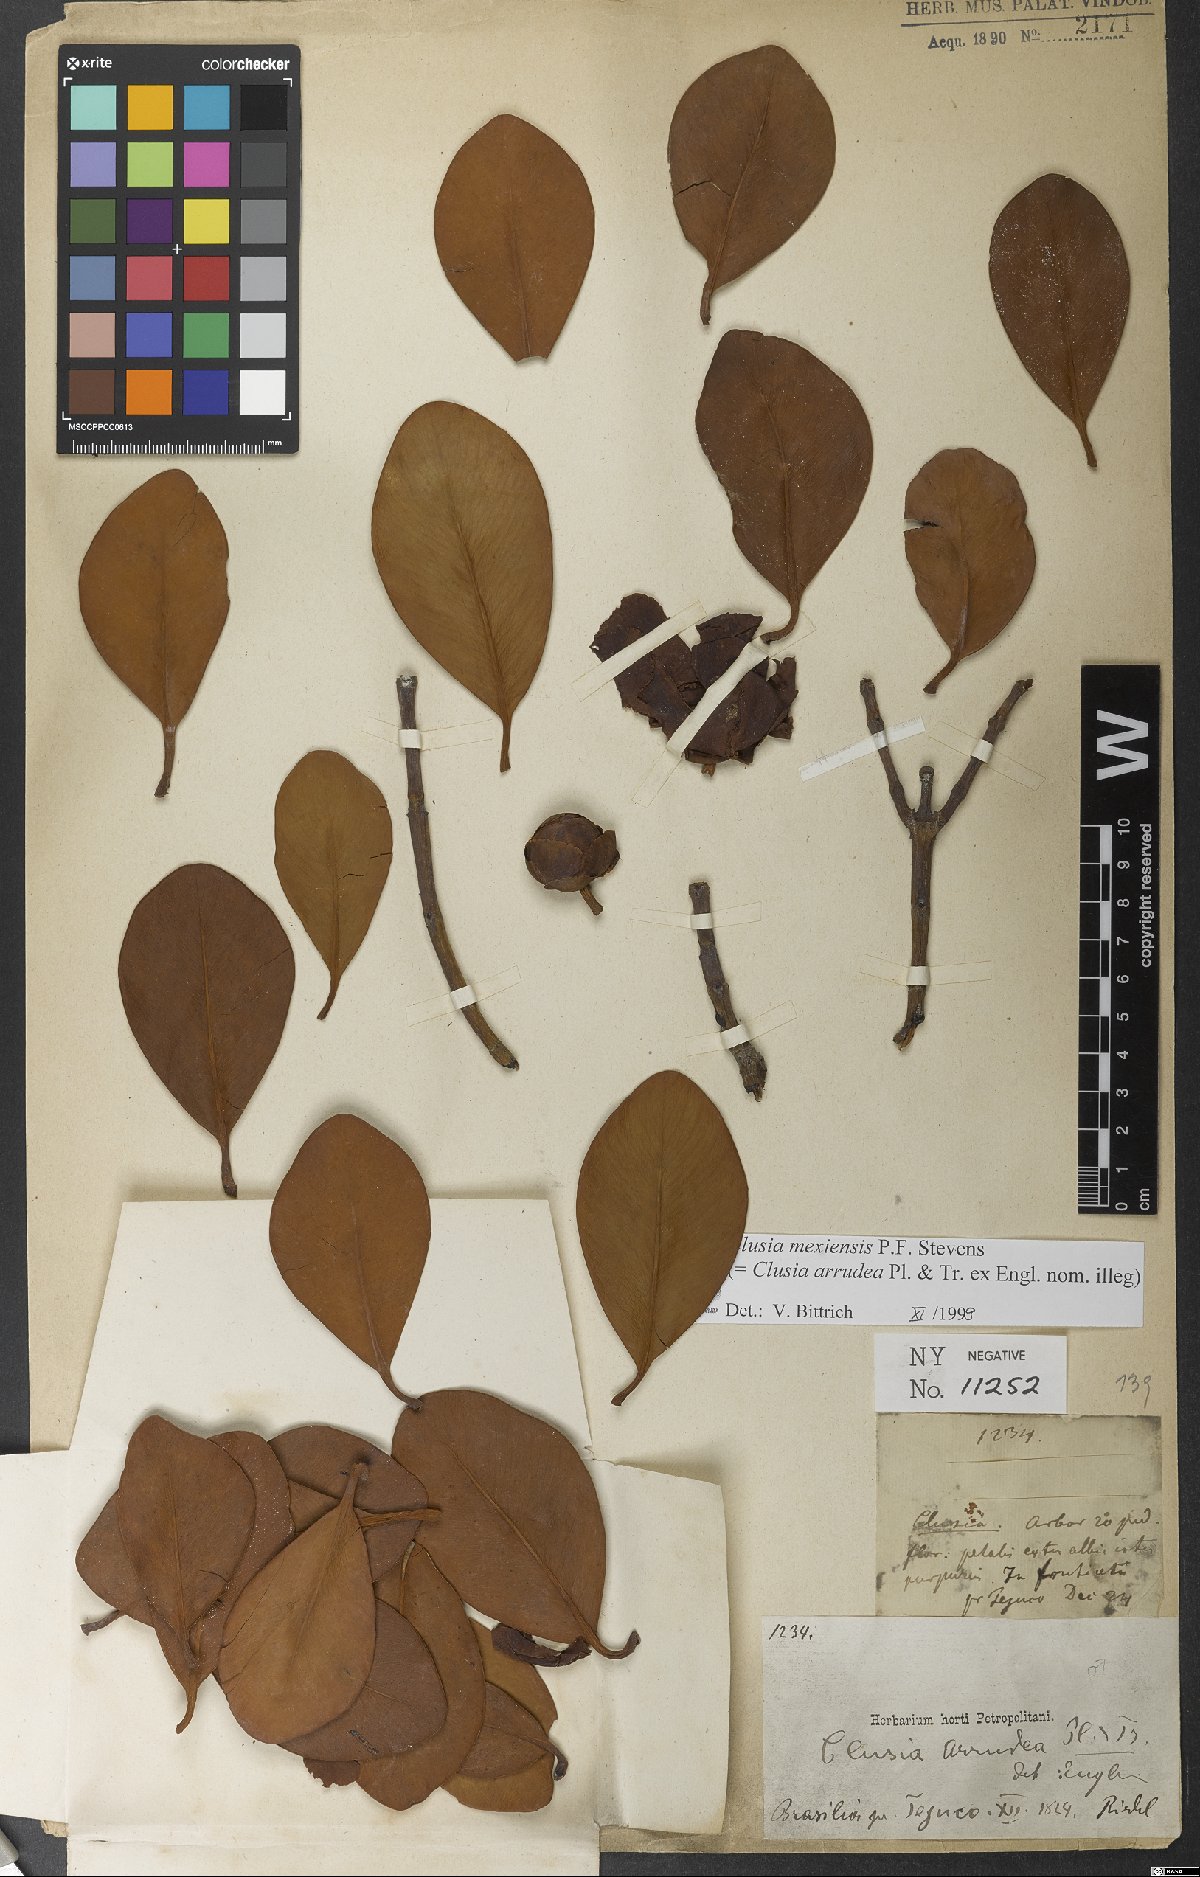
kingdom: Plantae
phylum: Tracheophyta
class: Magnoliopsida
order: Malpighiales
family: Clusiaceae
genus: Clusia
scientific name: Clusia mexiensis
